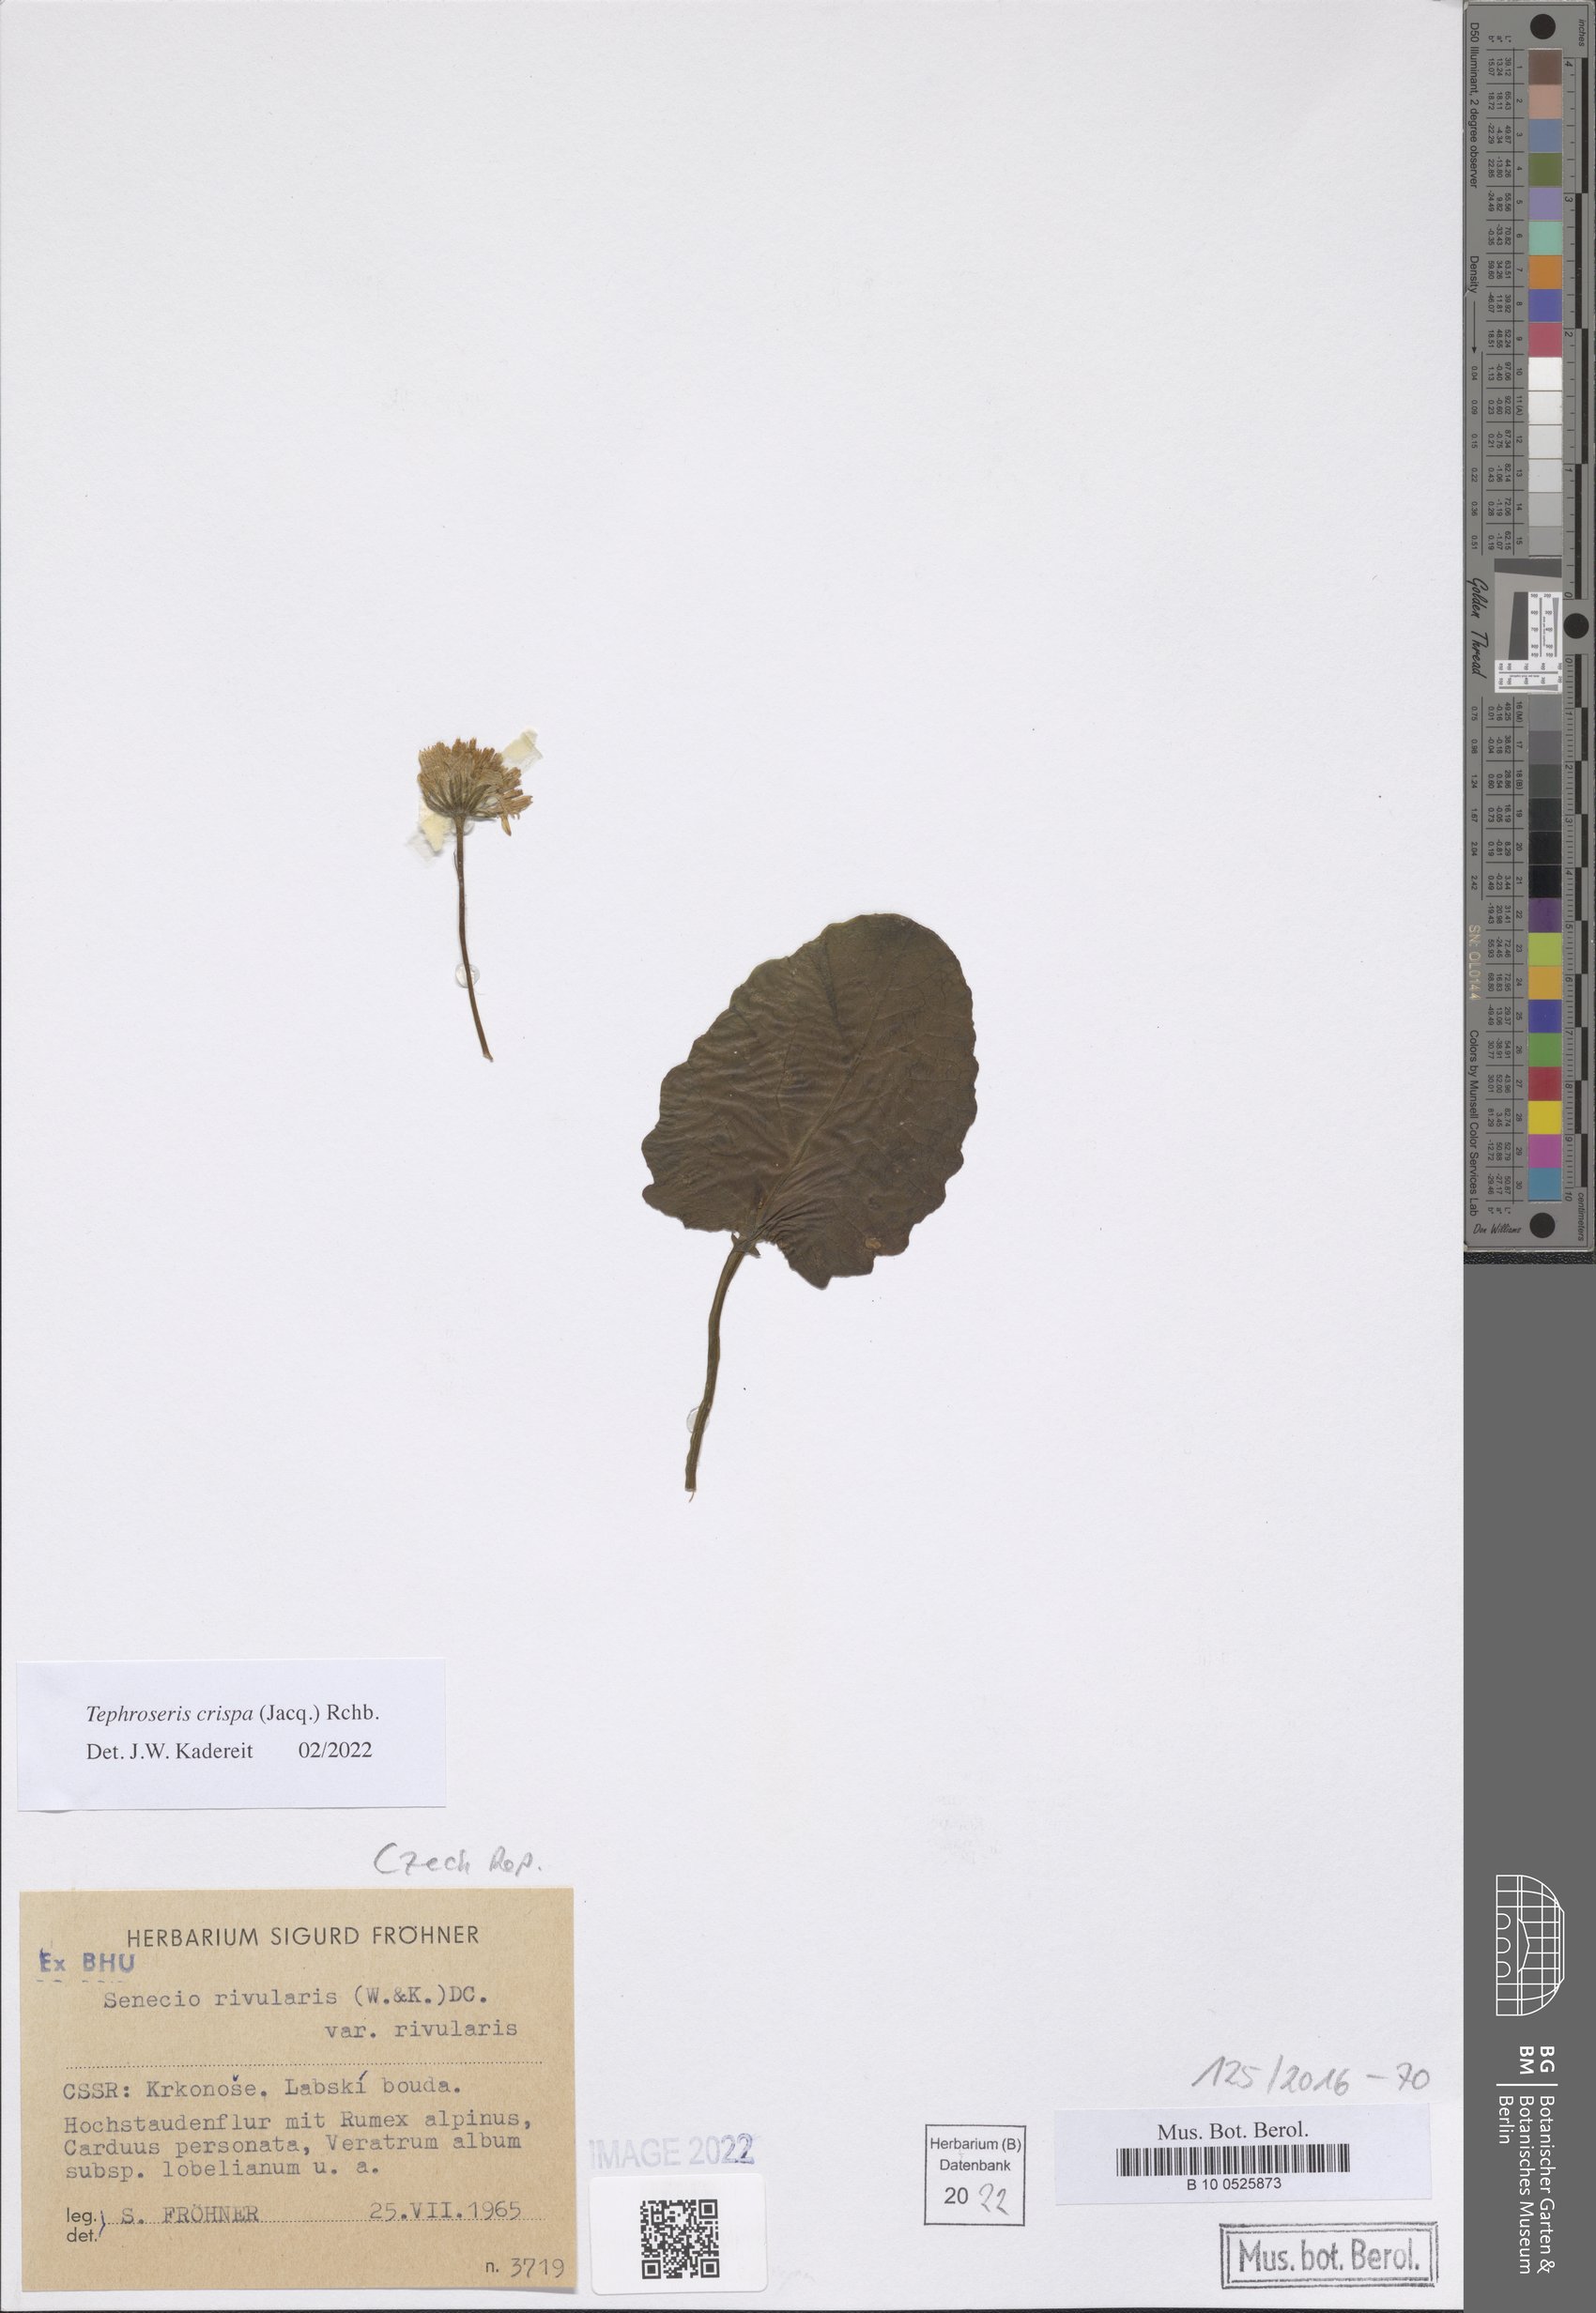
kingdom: Plantae
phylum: Tracheophyta
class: Magnoliopsida
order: Asterales
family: Asteraceae
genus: Tephroseris
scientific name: Tephroseris crispa
